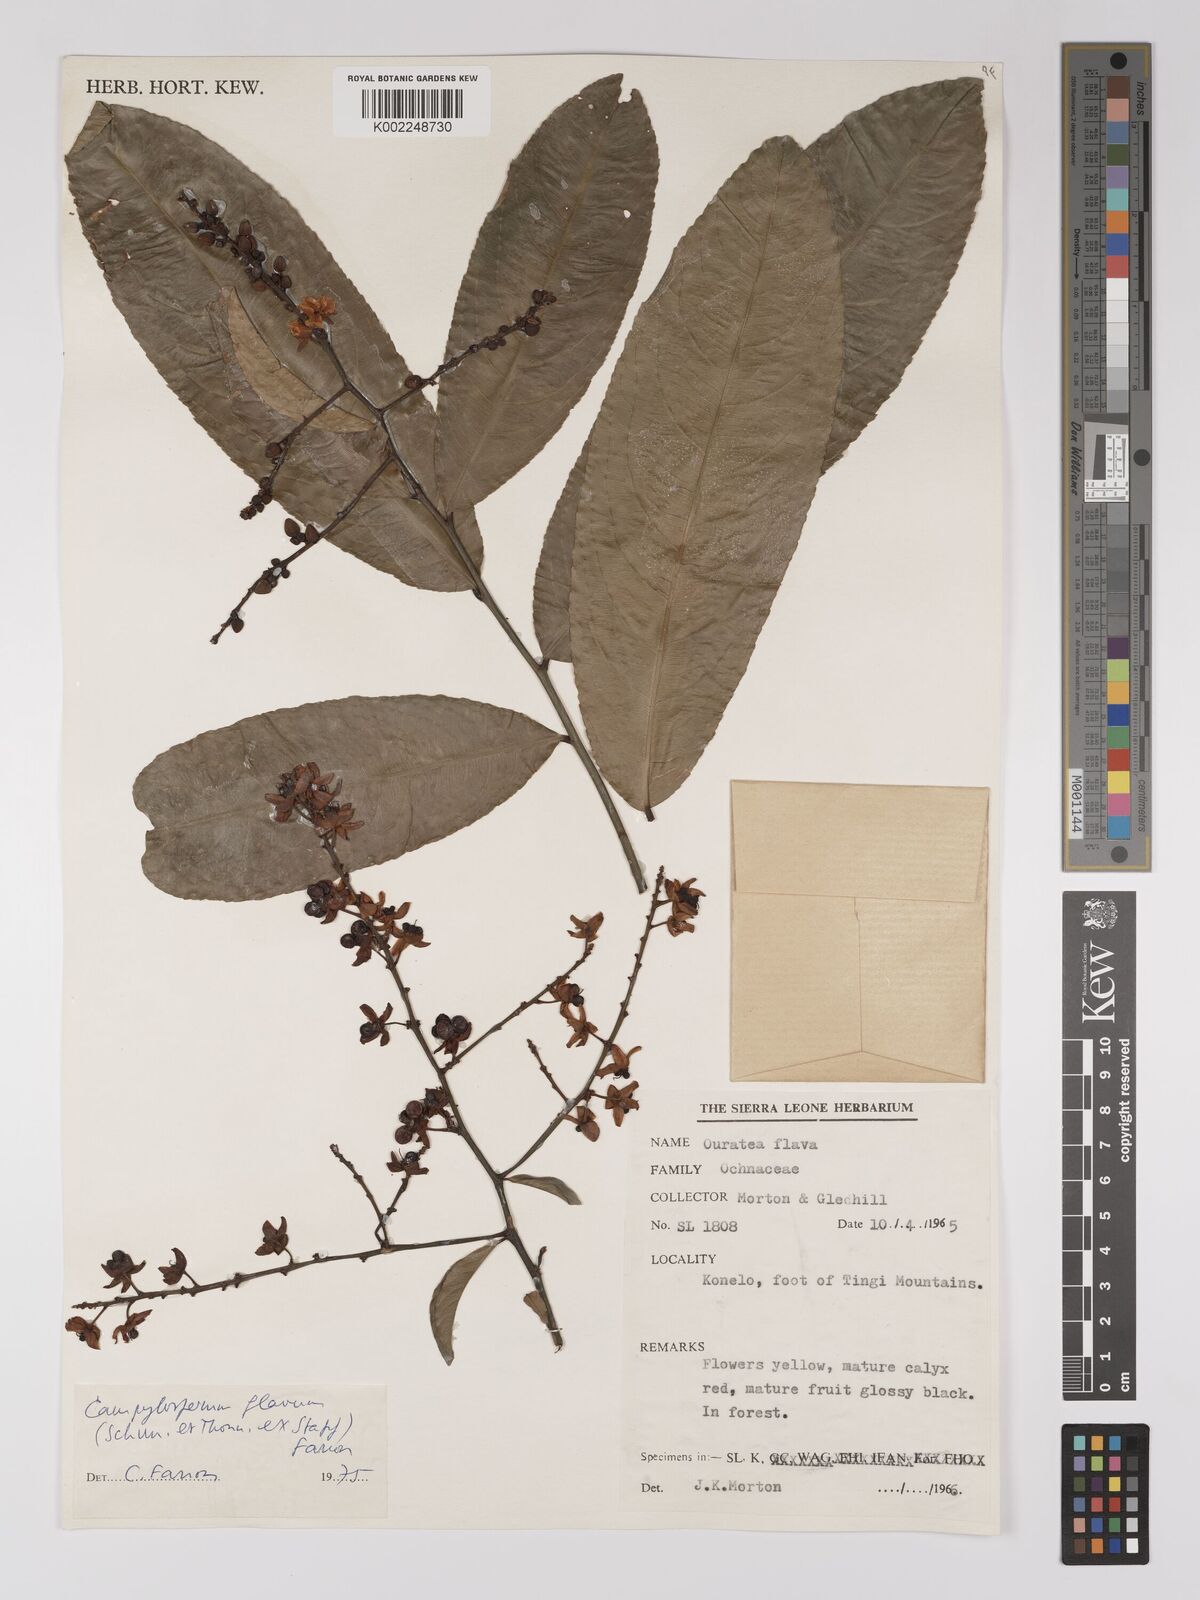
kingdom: Plantae
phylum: Tracheophyta
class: Magnoliopsida
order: Malpighiales
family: Ochnaceae
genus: Campylospermum
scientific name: Campylospermum flavum
